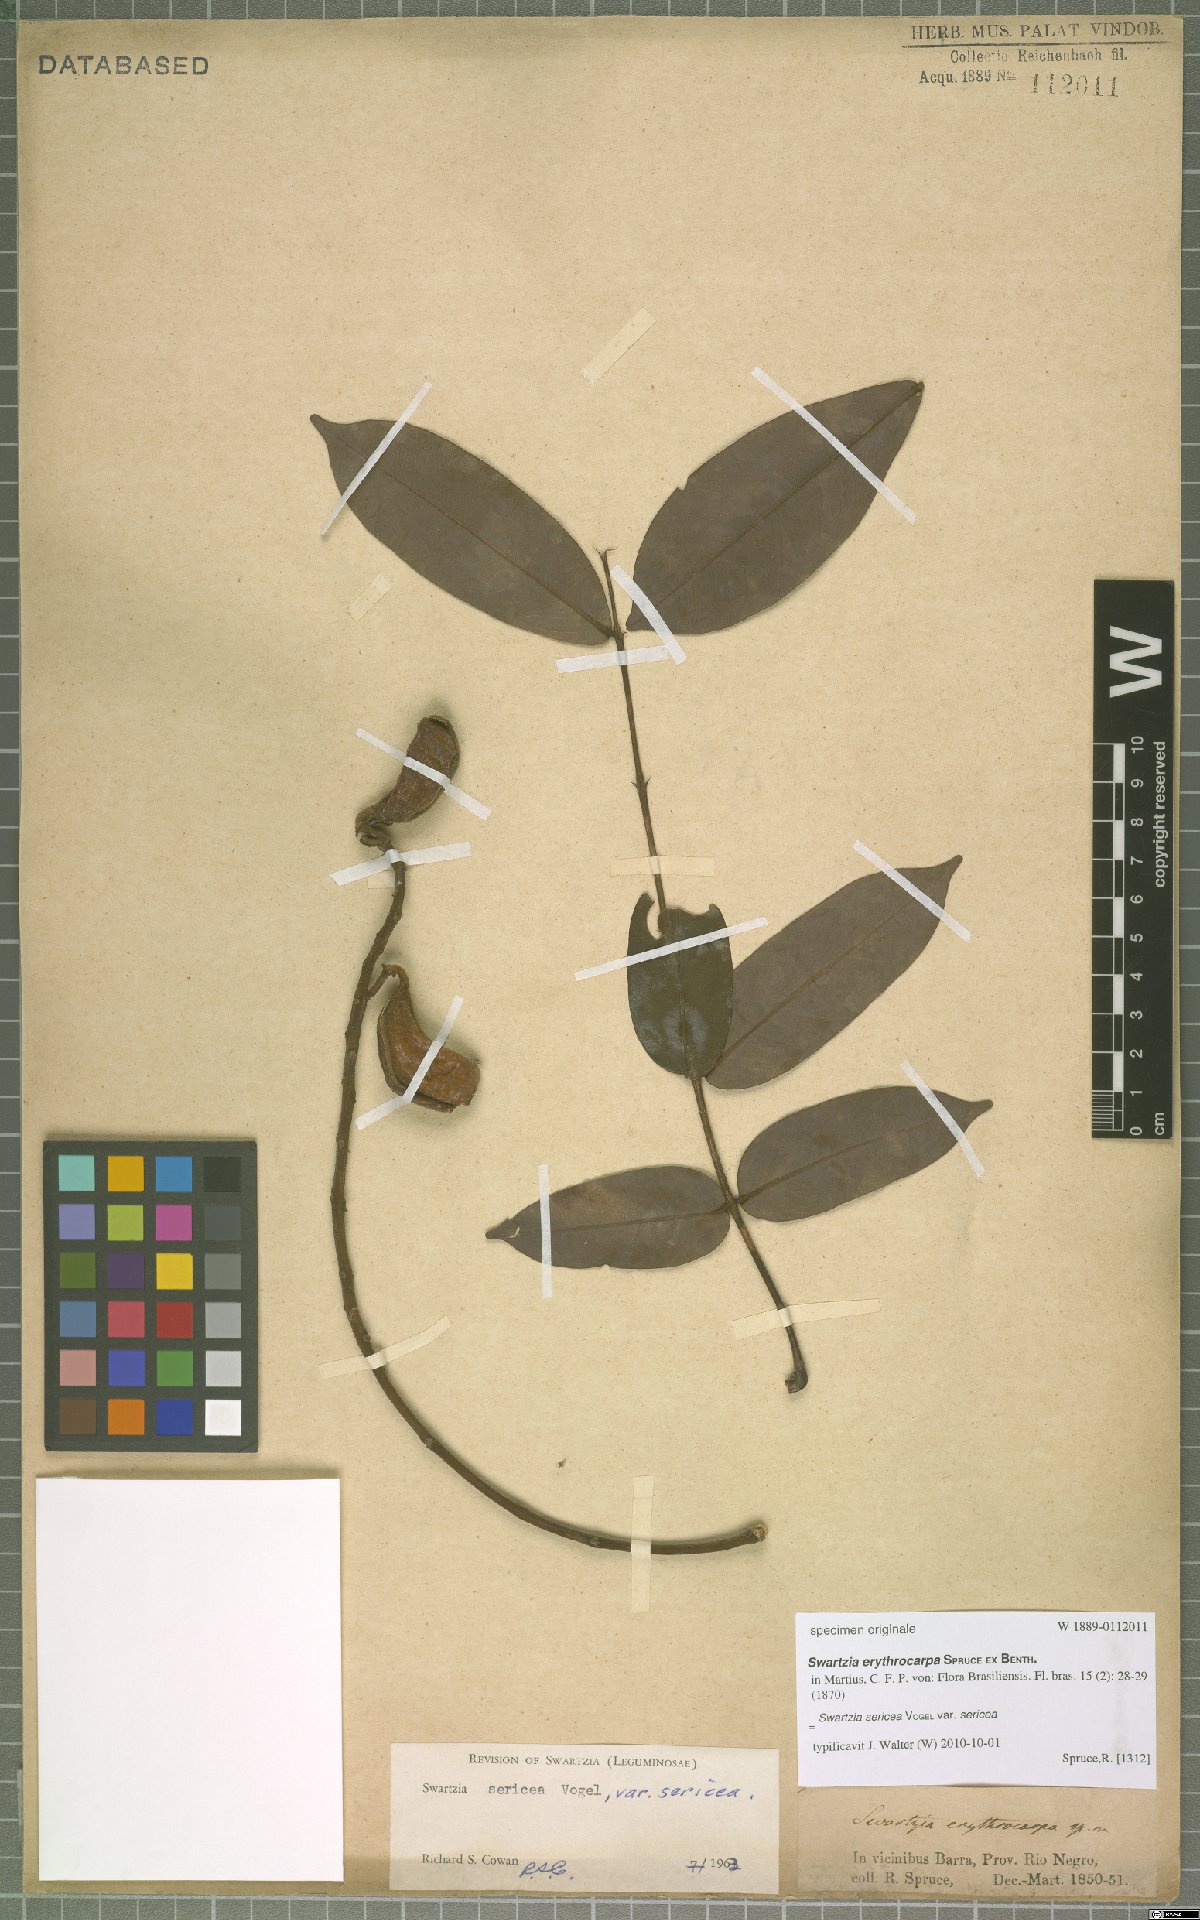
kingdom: Plantae
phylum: Tracheophyta
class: Magnoliopsida
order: Fabales
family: Fabaceae
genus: Swartzia
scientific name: Swartzia sericea
